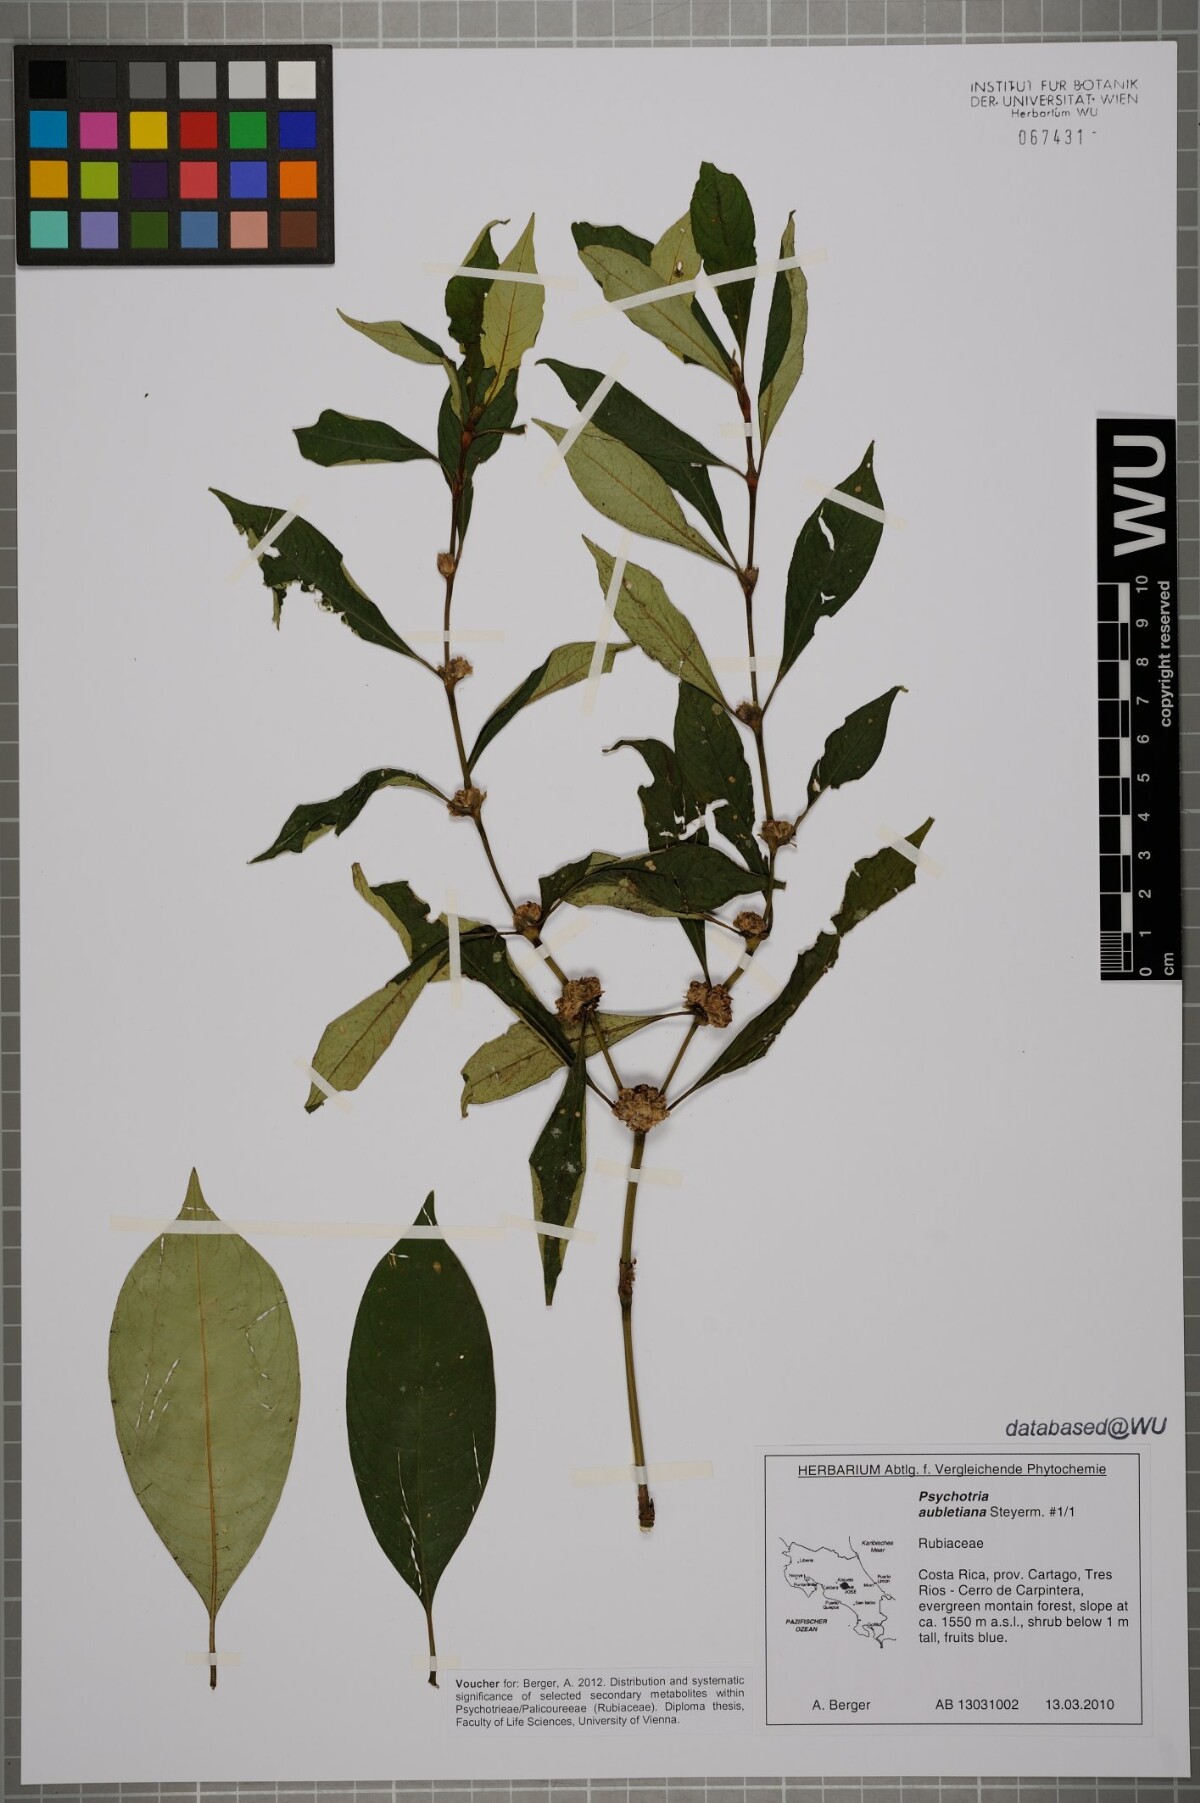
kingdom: Plantae
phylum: Tracheophyta
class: Magnoliopsida
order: Gentianales
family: Rubiaceae
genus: Palicourea
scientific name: Palicourea axillaris
